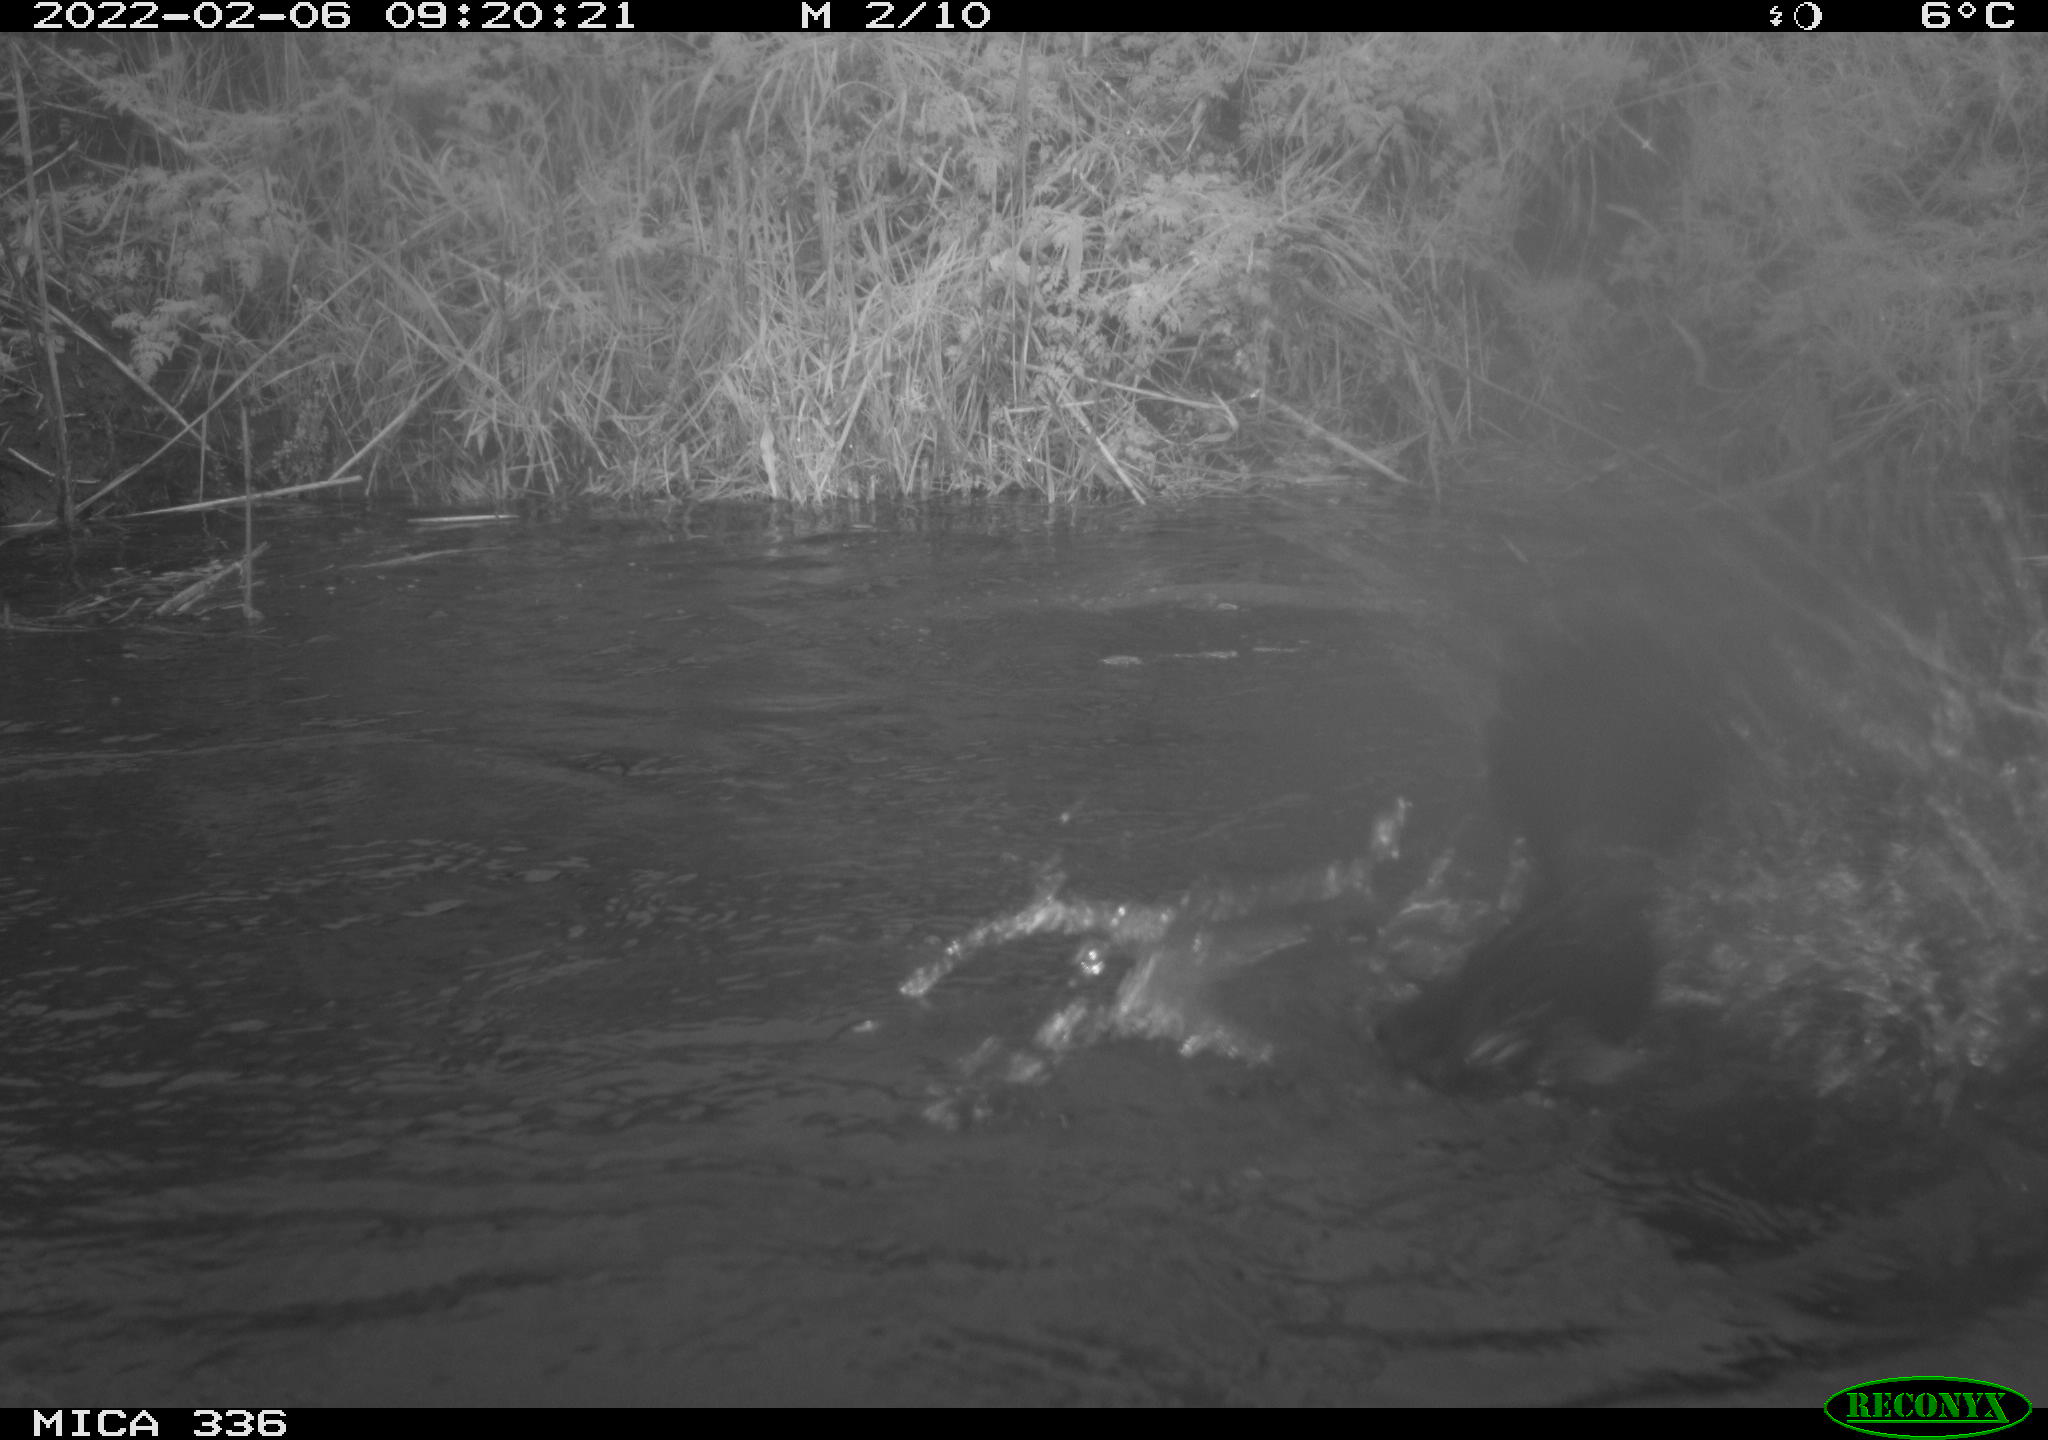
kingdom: Animalia
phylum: Chordata
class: Aves
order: Suliformes
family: Phalacrocoracidae
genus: Phalacrocorax
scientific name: Phalacrocorax carbo
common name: Great cormorant
